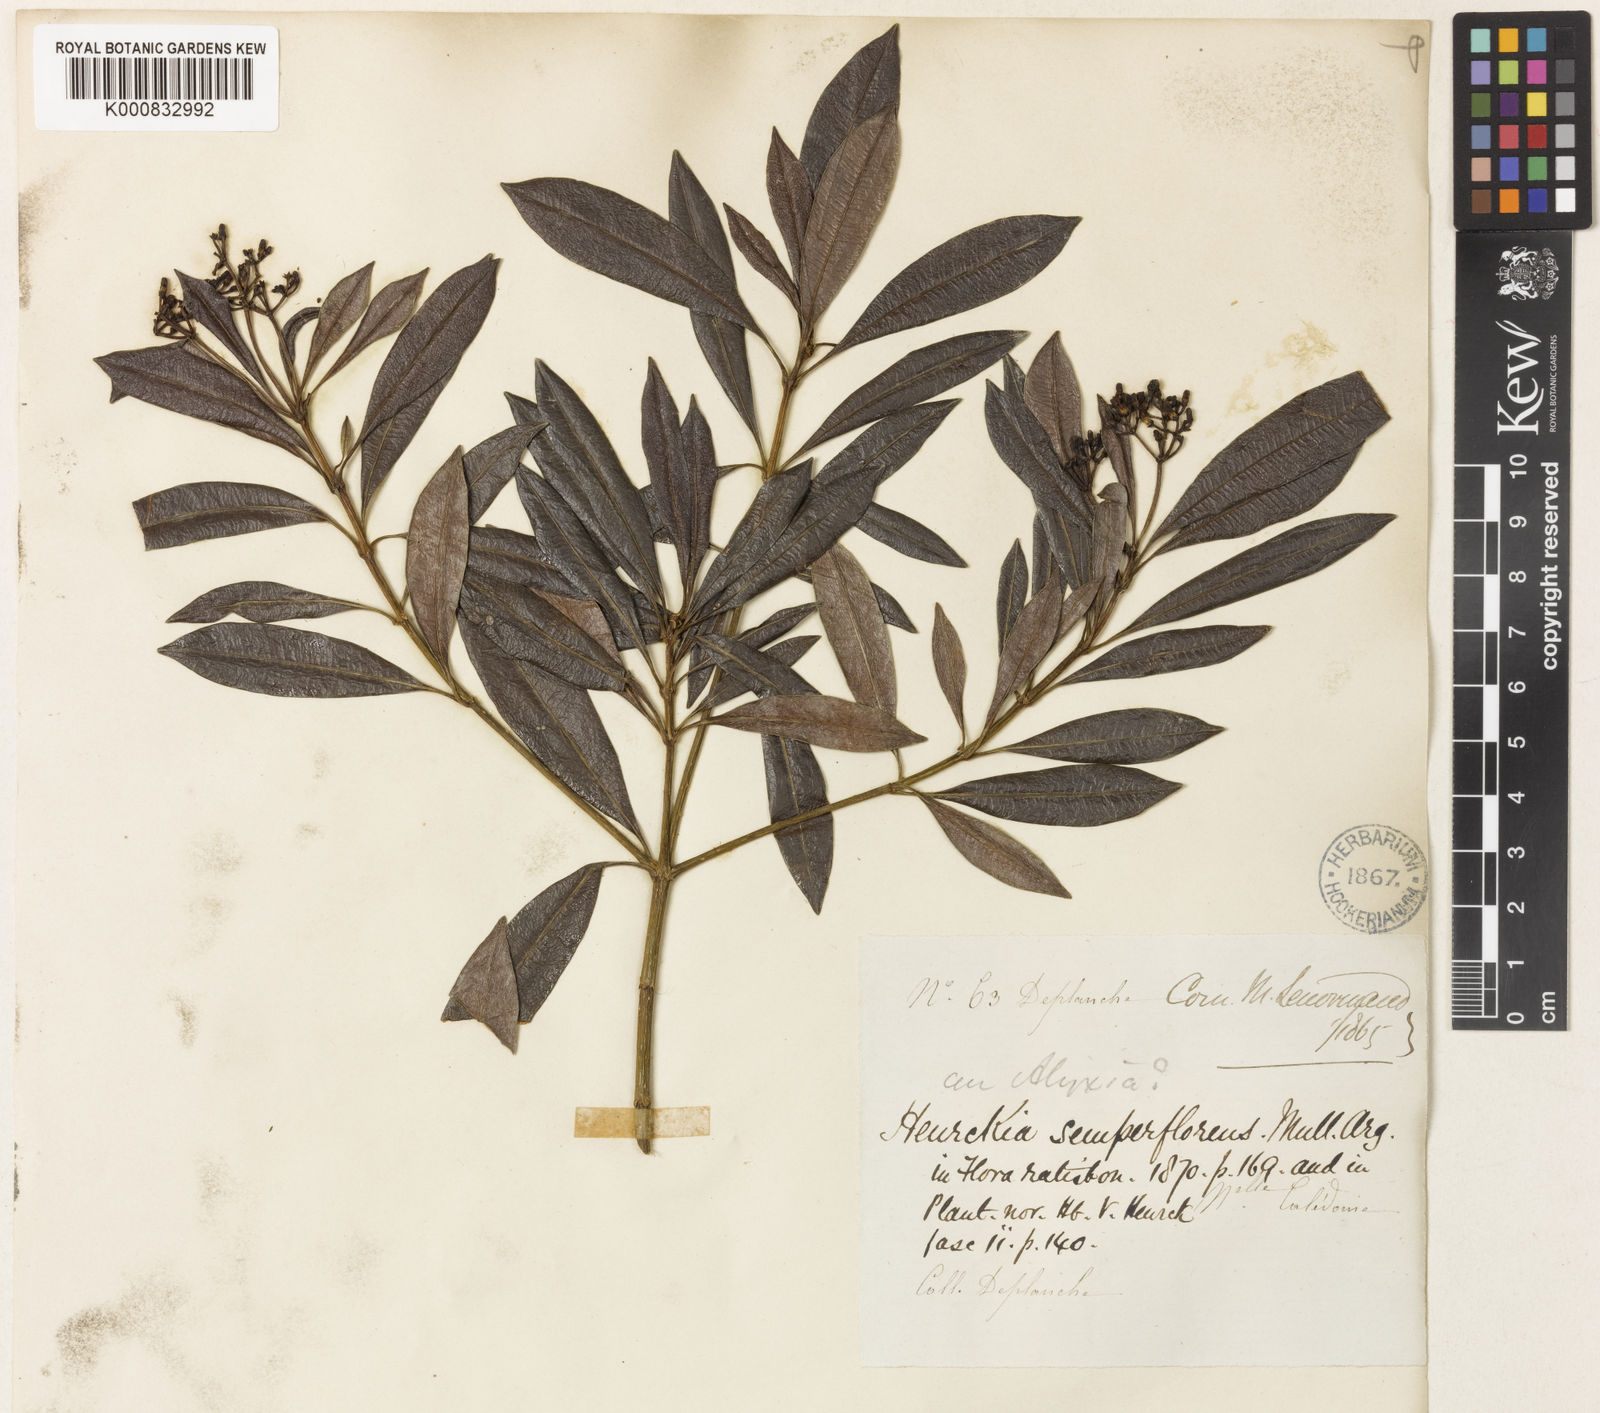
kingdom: Plantae
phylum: Tracheophyta
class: Magnoliopsida
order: Gentianales
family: Apocynaceae
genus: Rauvolfia
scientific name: Rauvolfia
